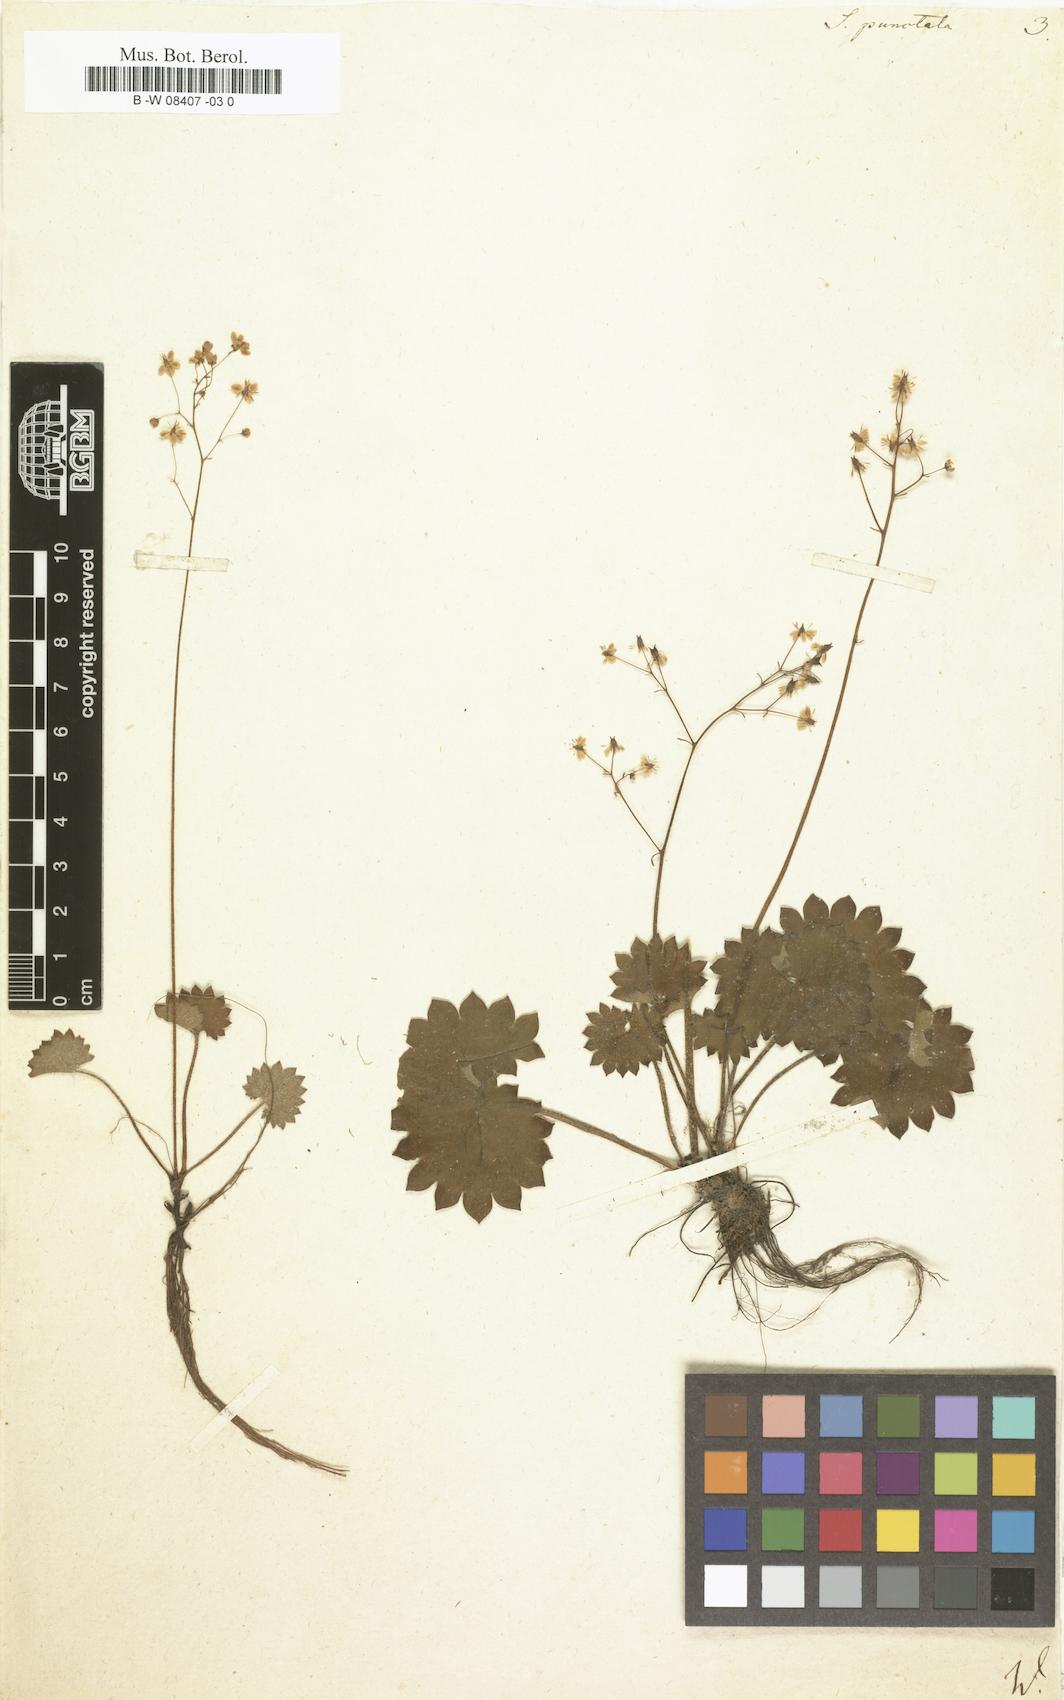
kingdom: Plantae
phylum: Tracheophyta
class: Magnoliopsida
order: Saxifragales
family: Saxifragaceae
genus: Micranthes
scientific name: Micranthes punctata
